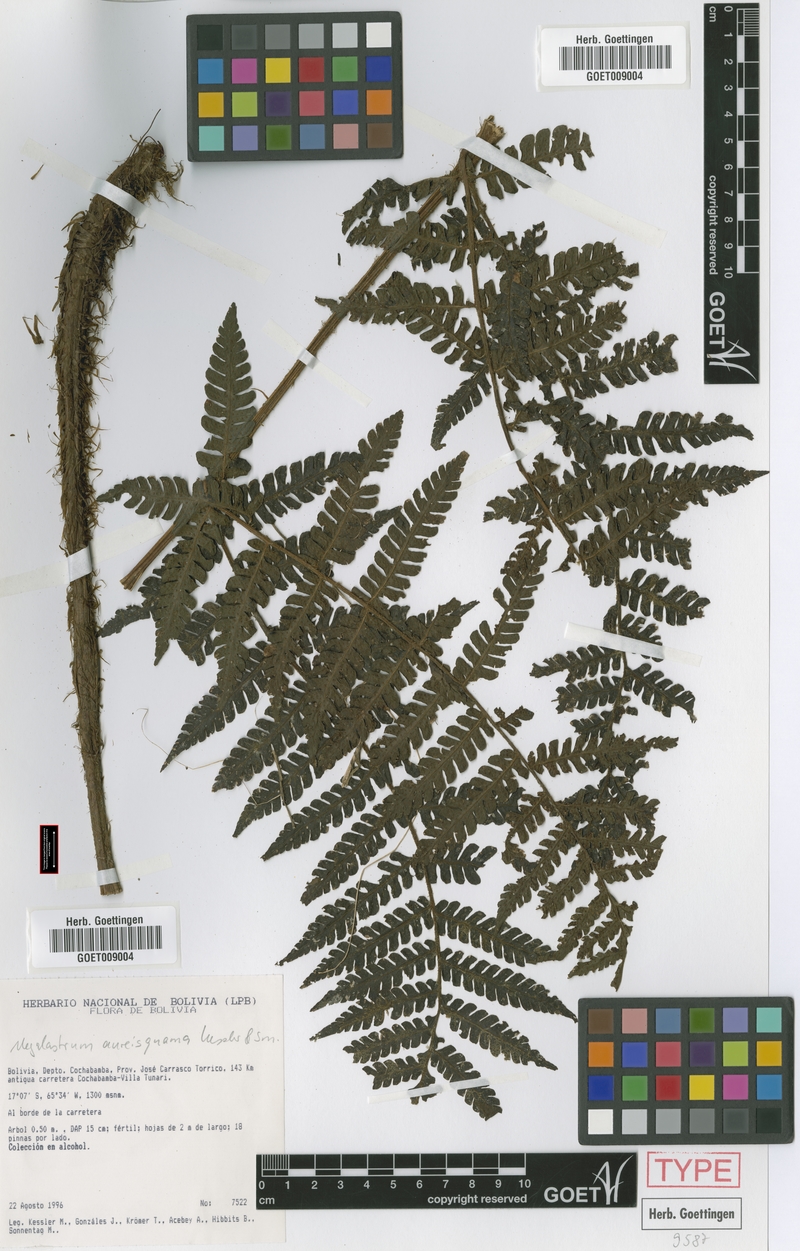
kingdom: Plantae
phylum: Tracheophyta
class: Polypodiopsida
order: Polypodiales
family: Dryopteridaceae
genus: Megalastrum
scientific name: Megalastrum aureisquama
